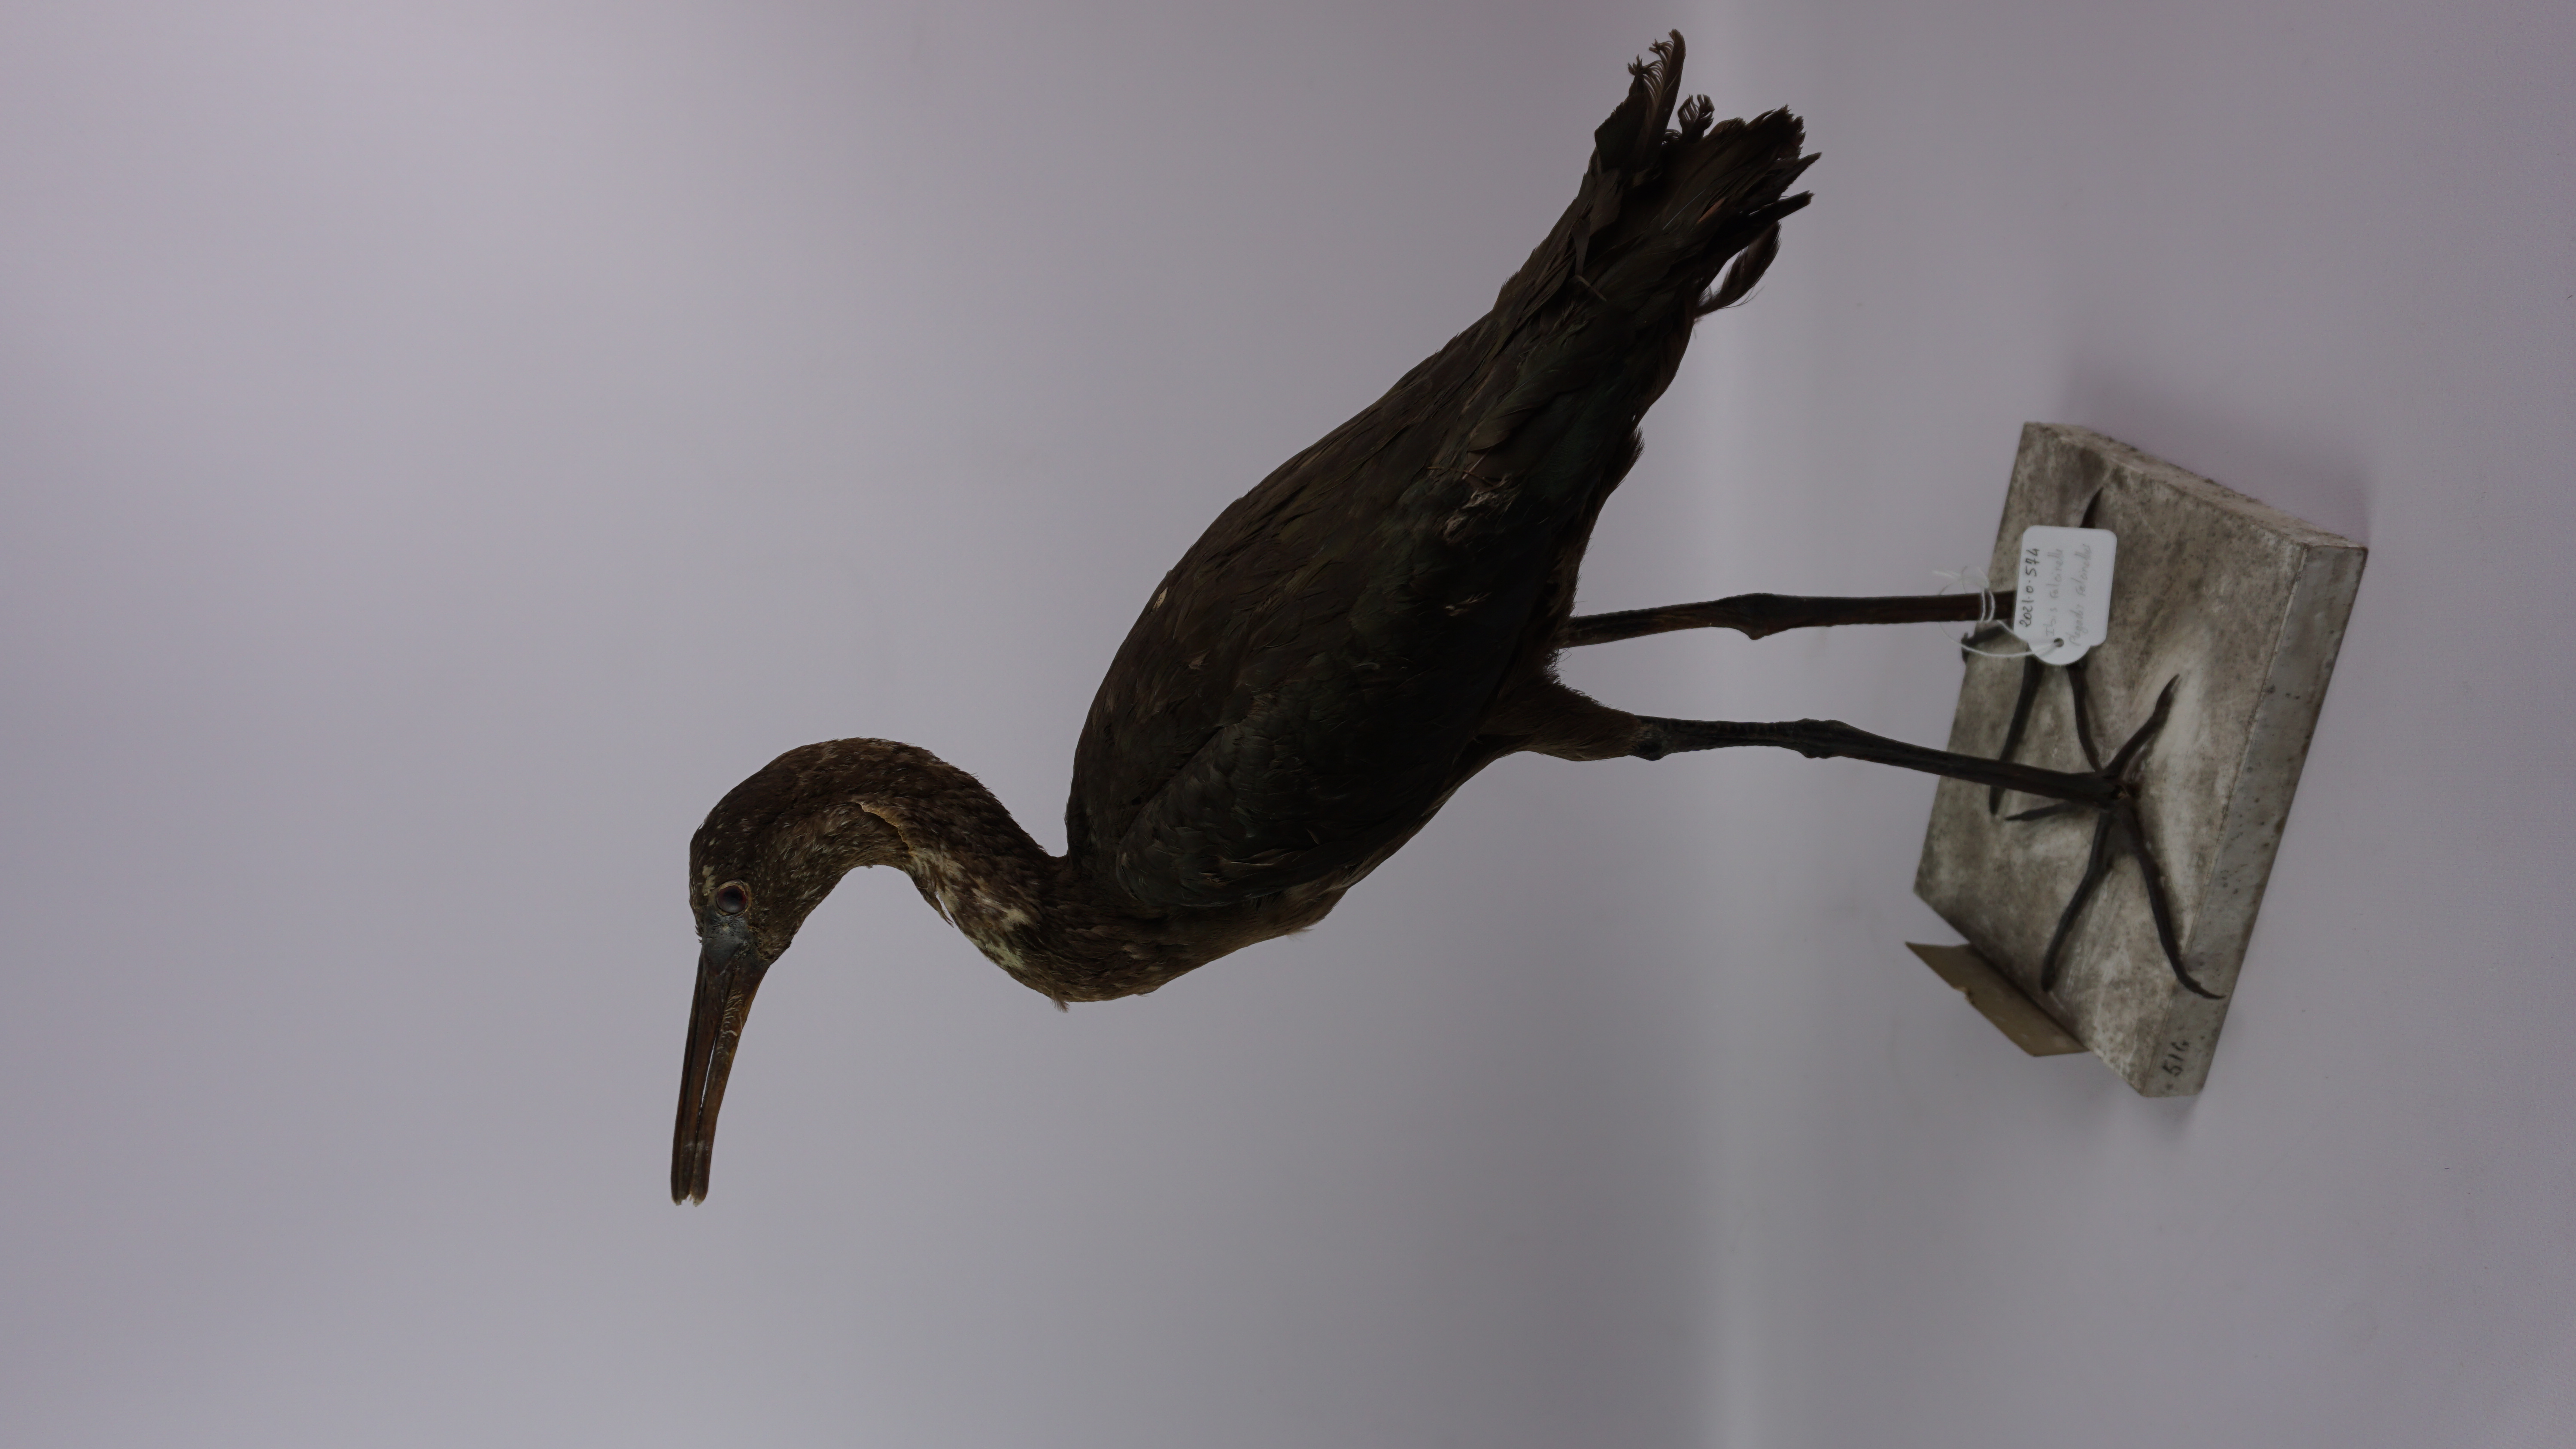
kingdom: Animalia
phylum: Chordata
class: Aves
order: Pelecaniformes
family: Threskiornithidae
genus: Plegadis
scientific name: Plegadis falcinellus
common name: Glossy ibis
